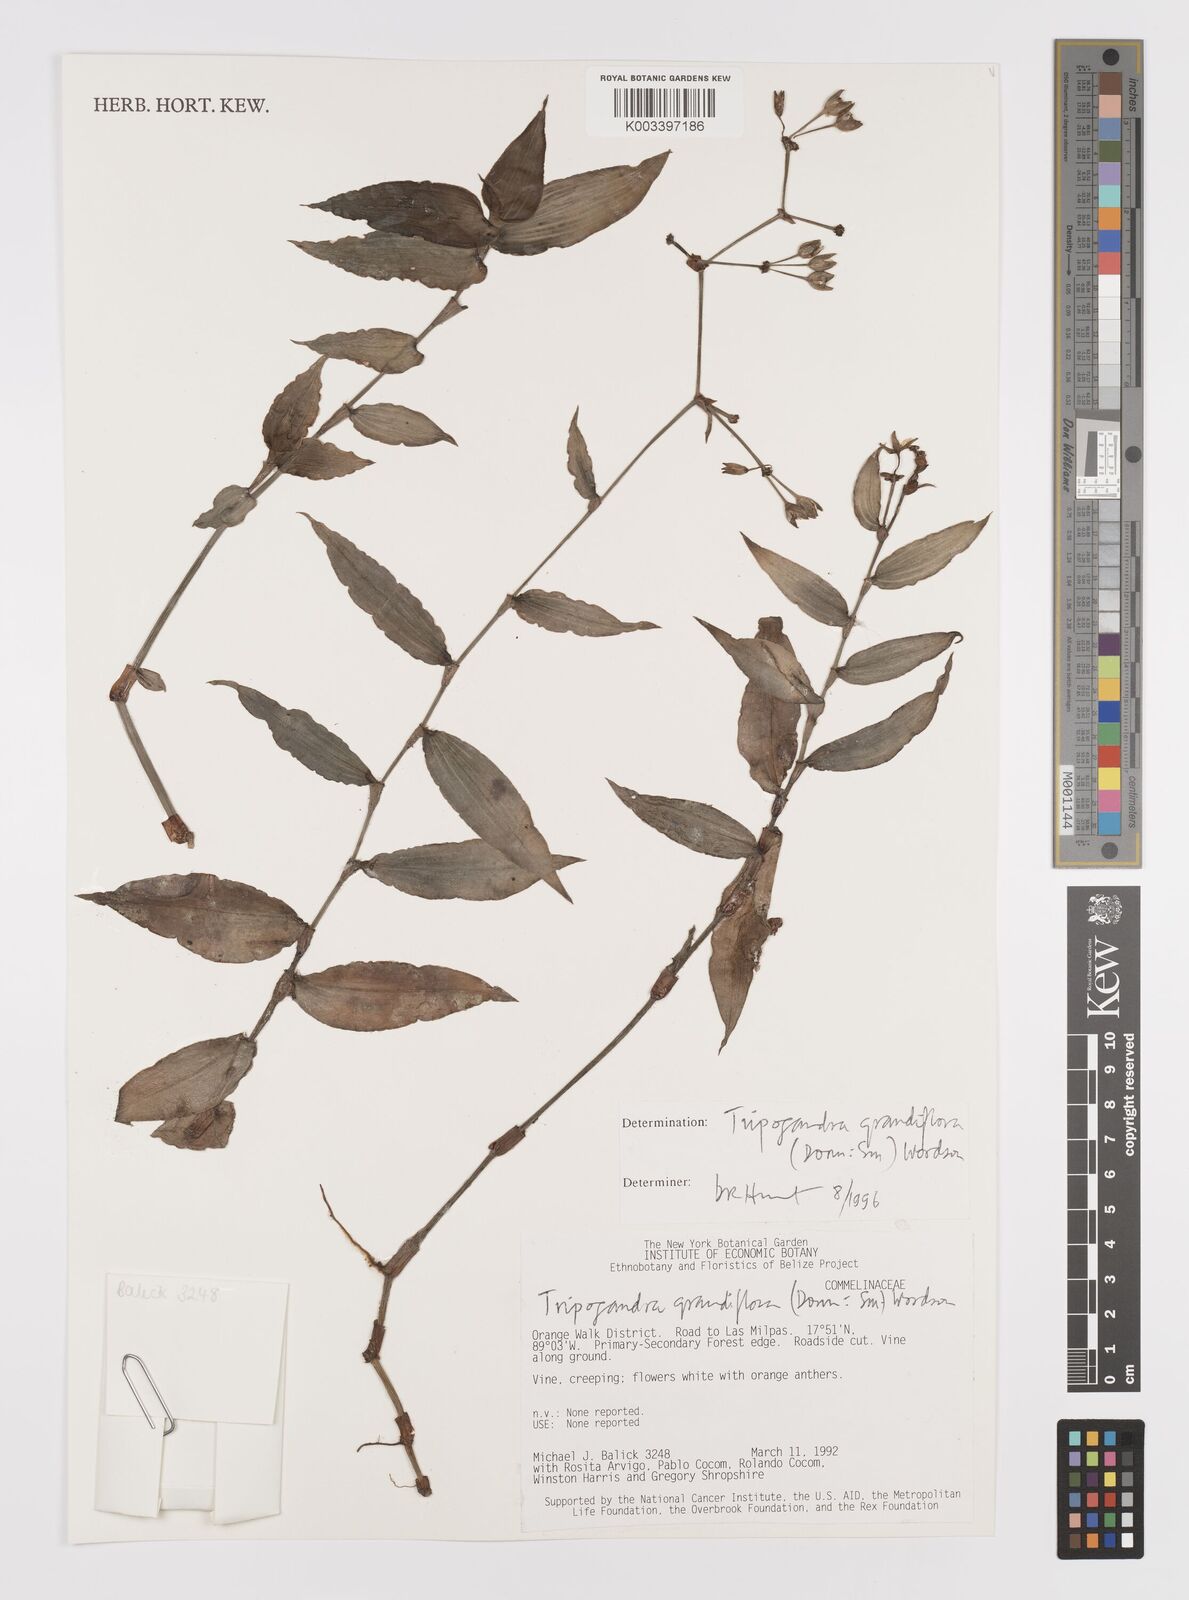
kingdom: Plantae
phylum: Tracheophyta
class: Liliopsida
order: Commelinales
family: Commelinaceae
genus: Callisia
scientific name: Callisia grandiflora
